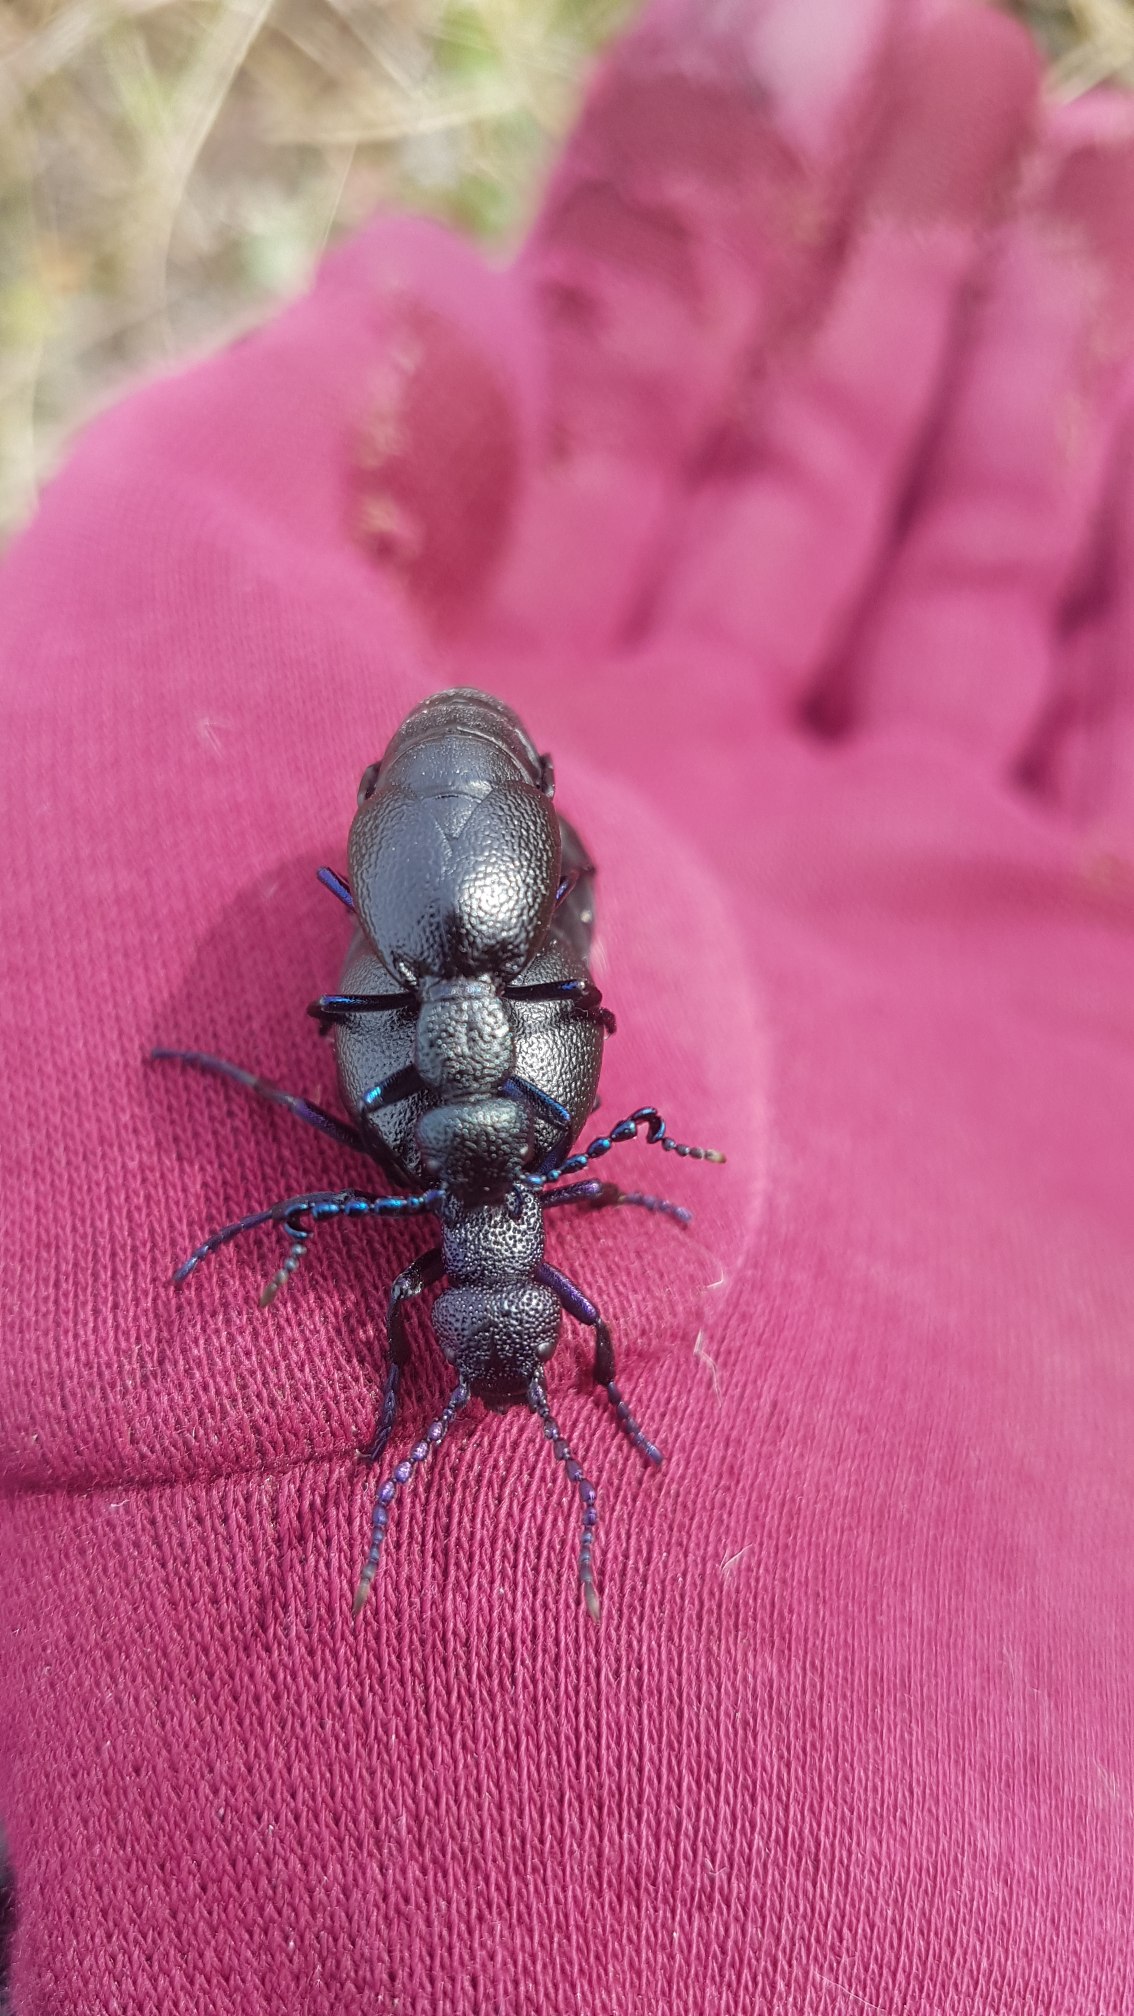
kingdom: Animalia
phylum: Arthropoda
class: Insecta
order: Coleoptera
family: Meloidae
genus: Meloe
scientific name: Meloe proscarabaeus
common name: Sort oliebille
